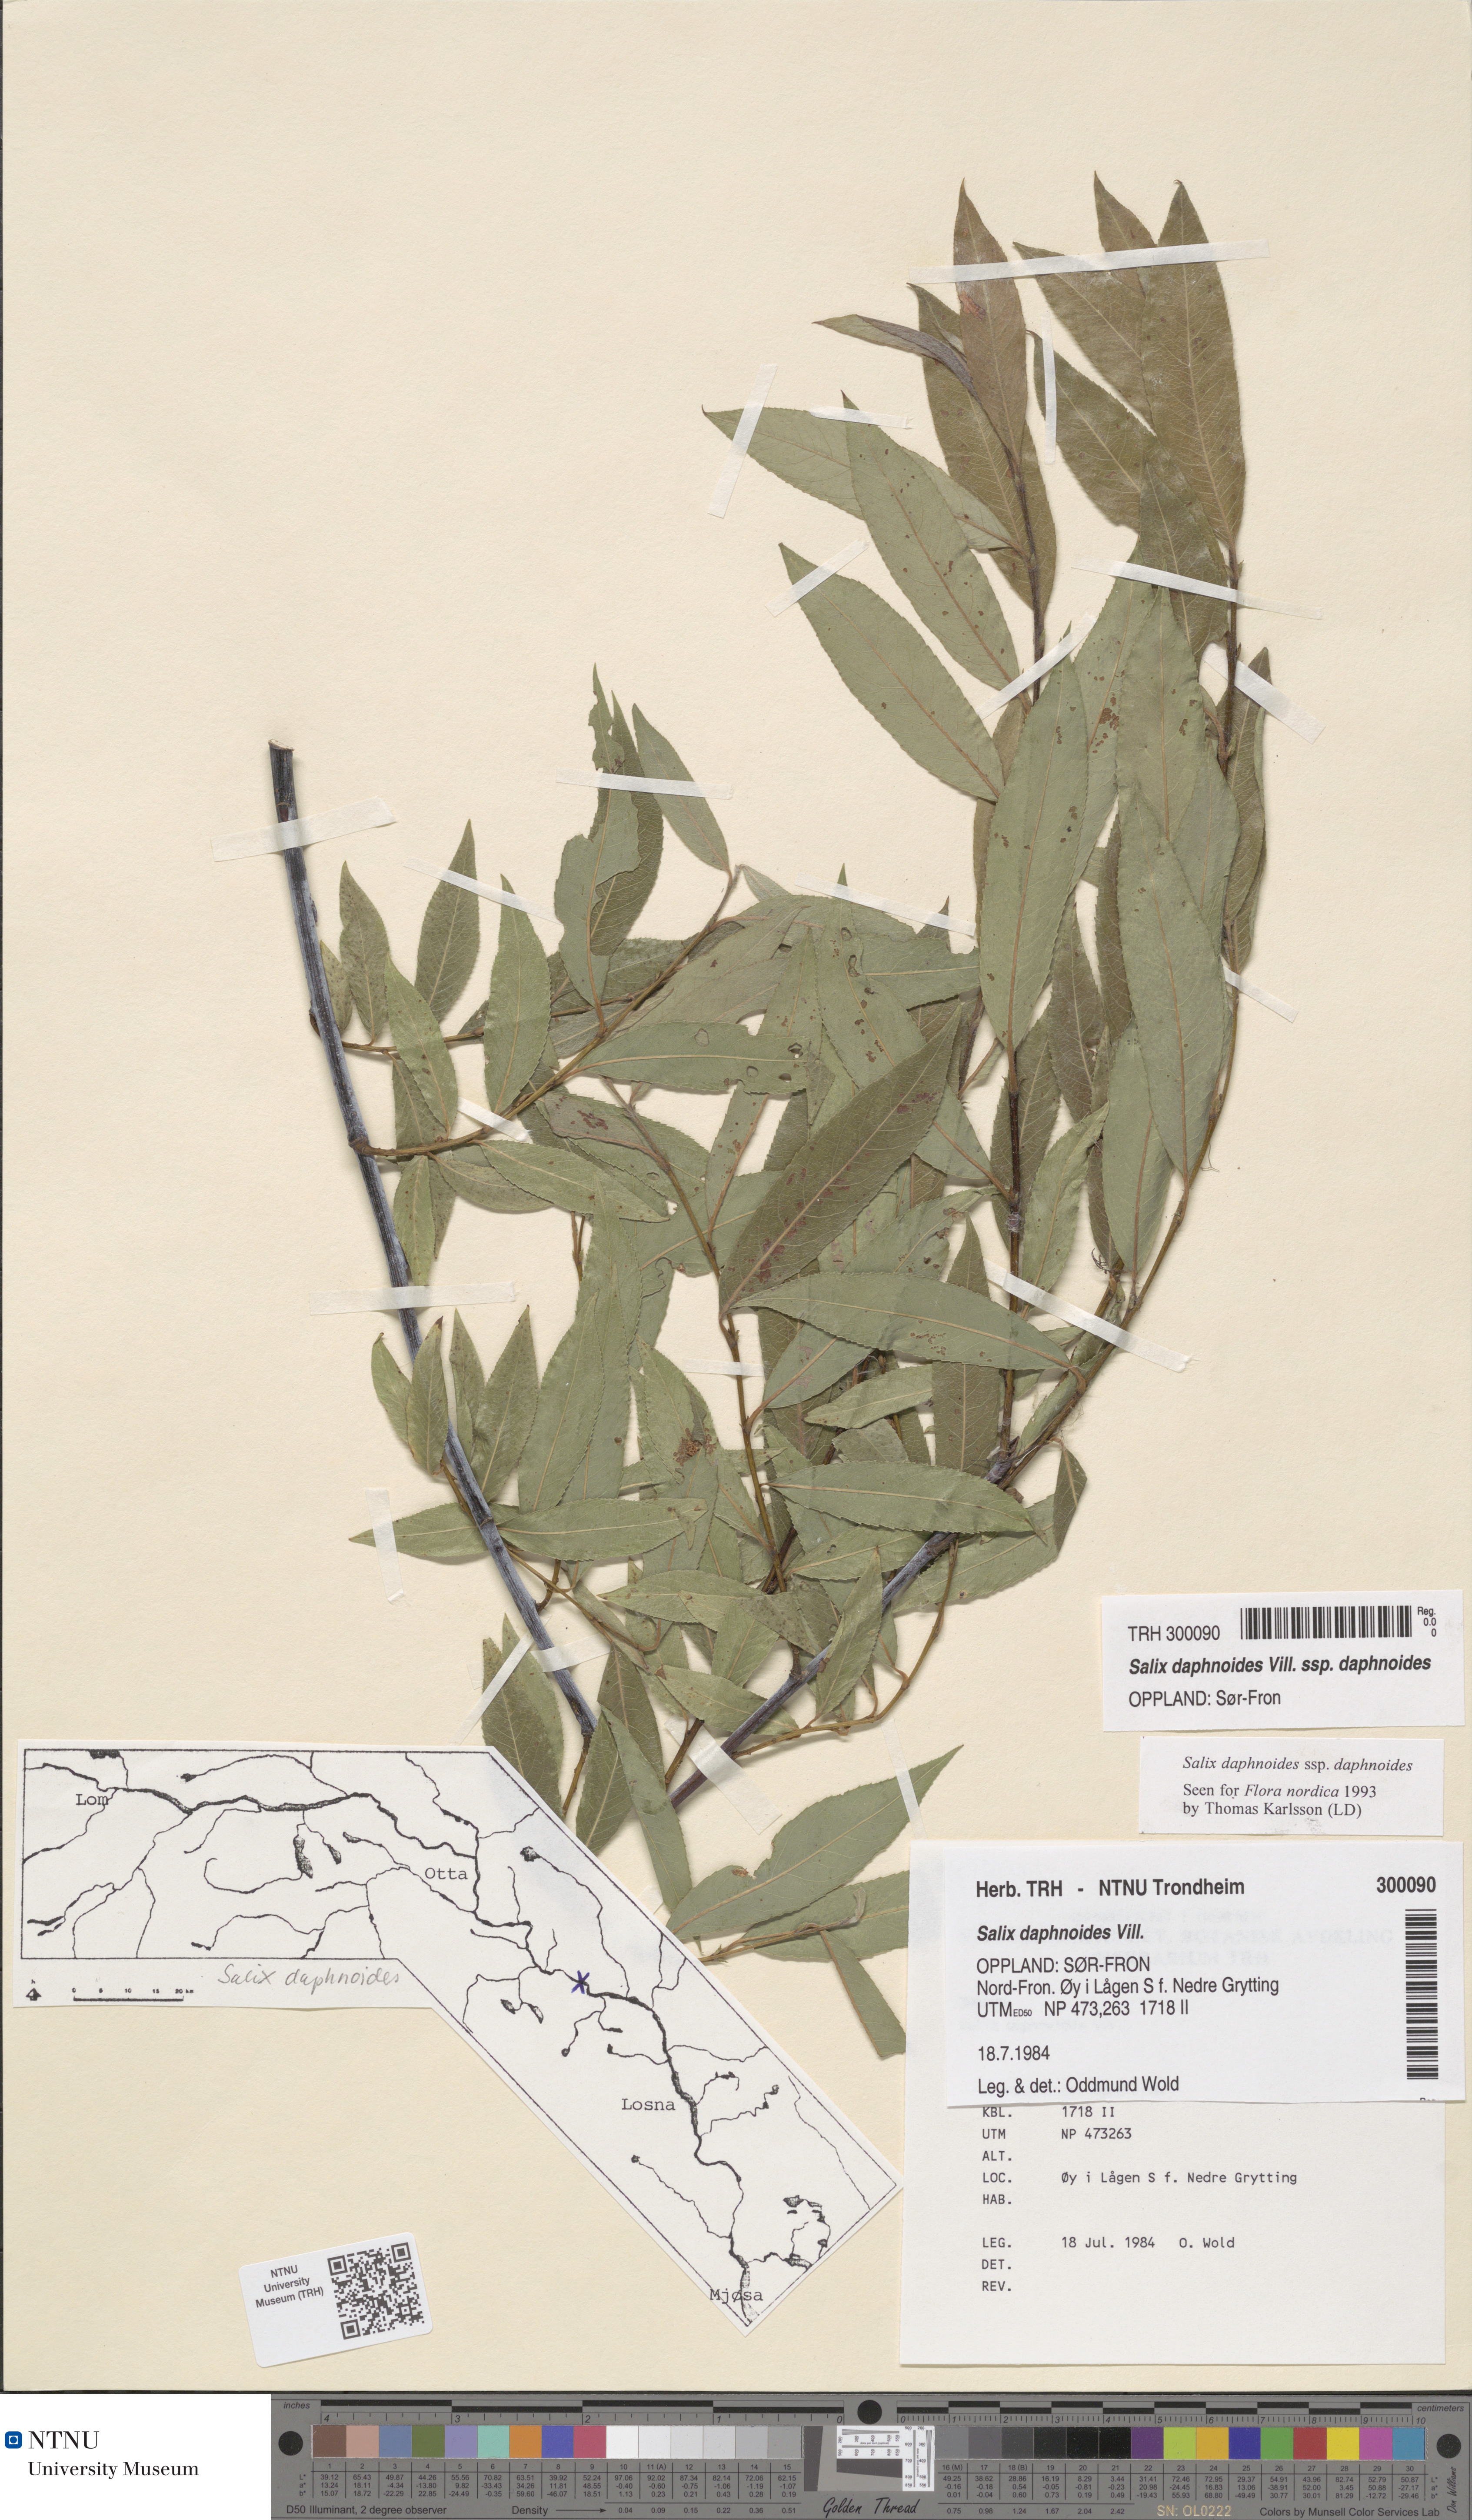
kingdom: Plantae
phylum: Tracheophyta
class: Magnoliopsida
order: Malpighiales
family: Salicaceae
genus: Salix
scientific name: Salix daphnoides
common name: European violet-willow
